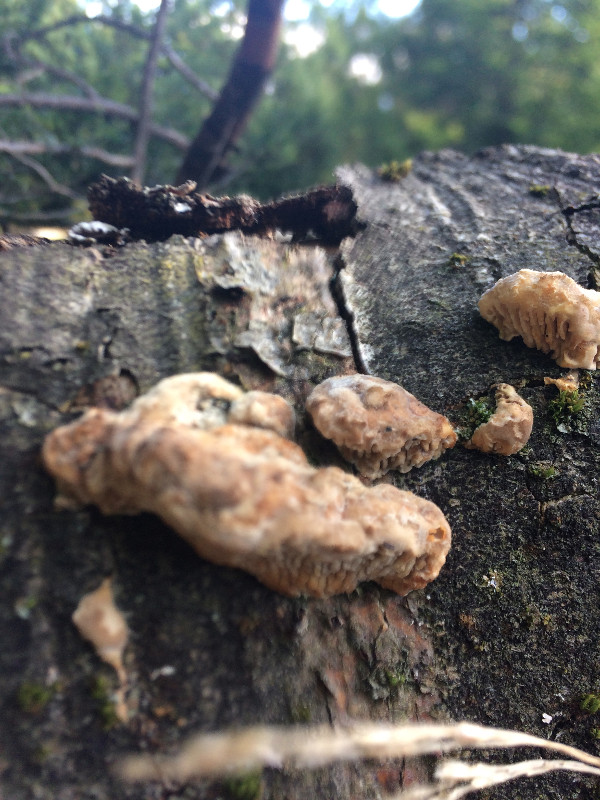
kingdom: Fungi
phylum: Basidiomycota
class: Agaricomycetes
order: Polyporales
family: Fomitopsidaceae
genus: Daedalea
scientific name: Daedalea quercina
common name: ege-labyrintsvamp
